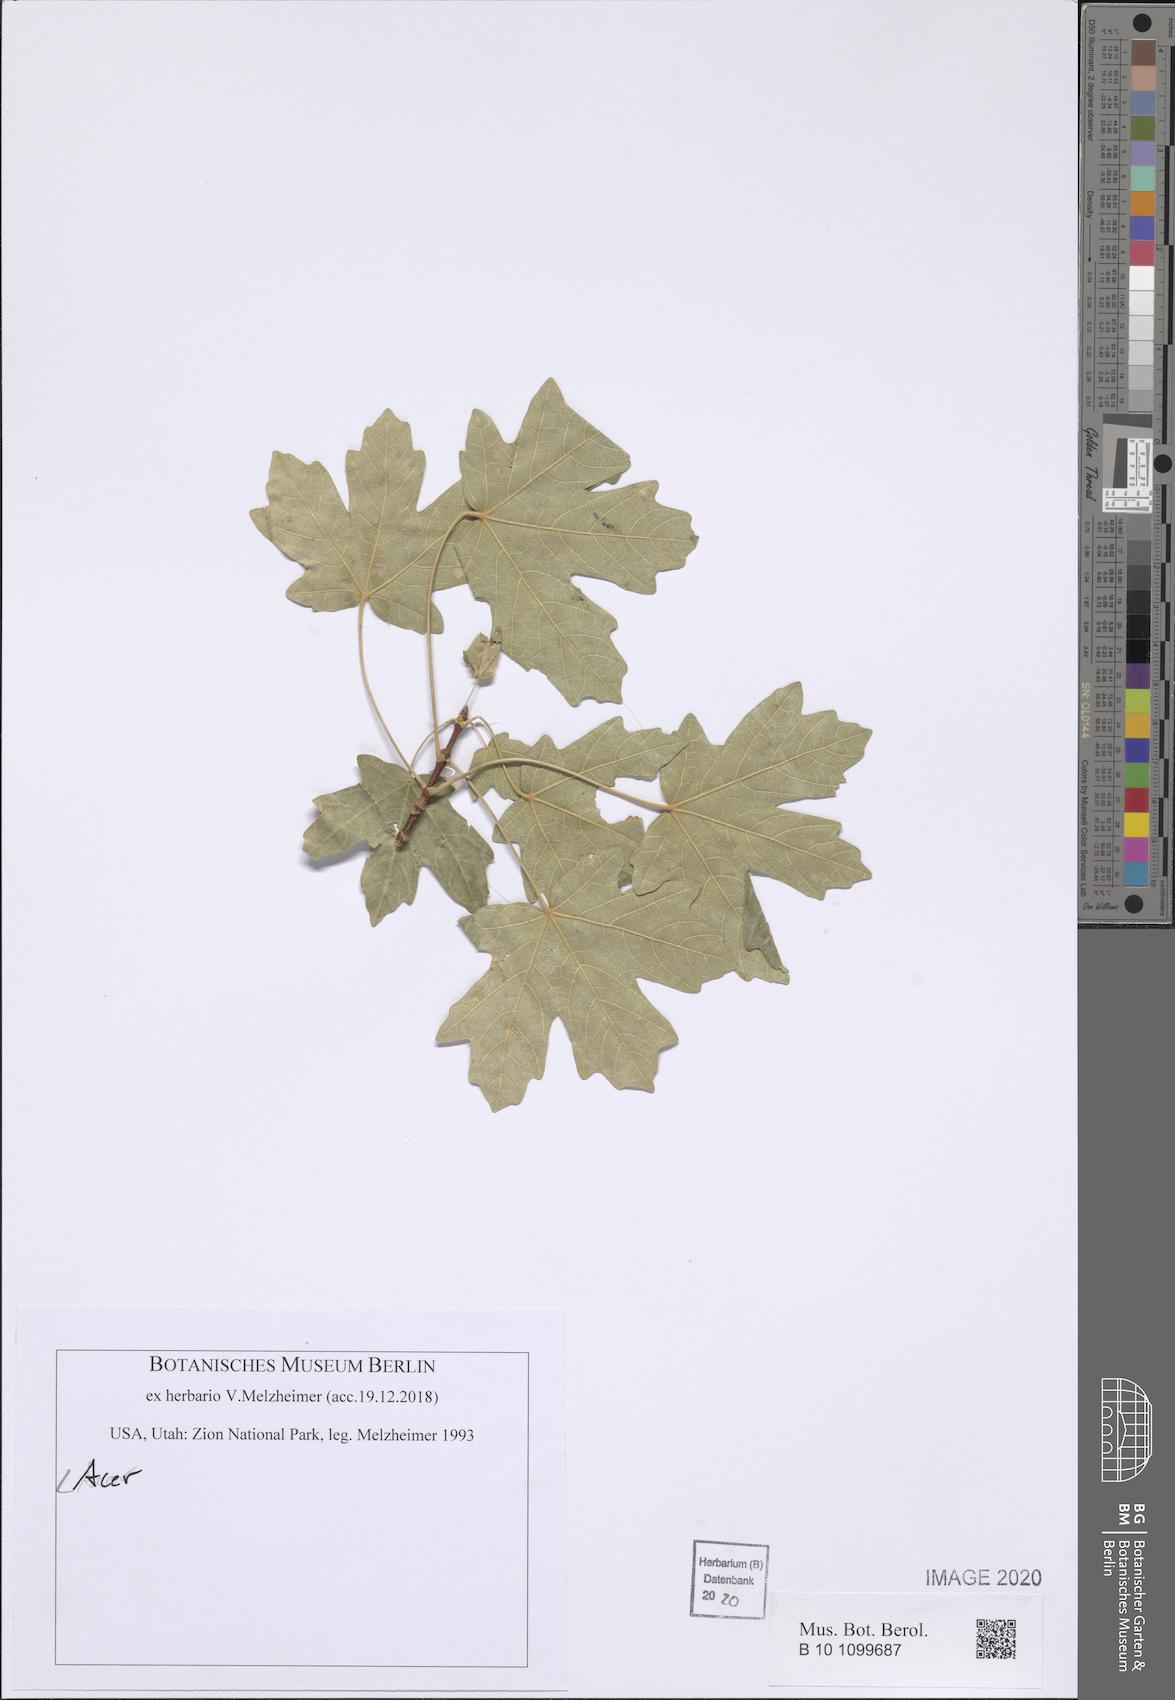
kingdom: Plantae
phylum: Tracheophyta
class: Magnoliopsida
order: Sapindales
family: Sapindaceae
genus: Acer
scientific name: Acer
